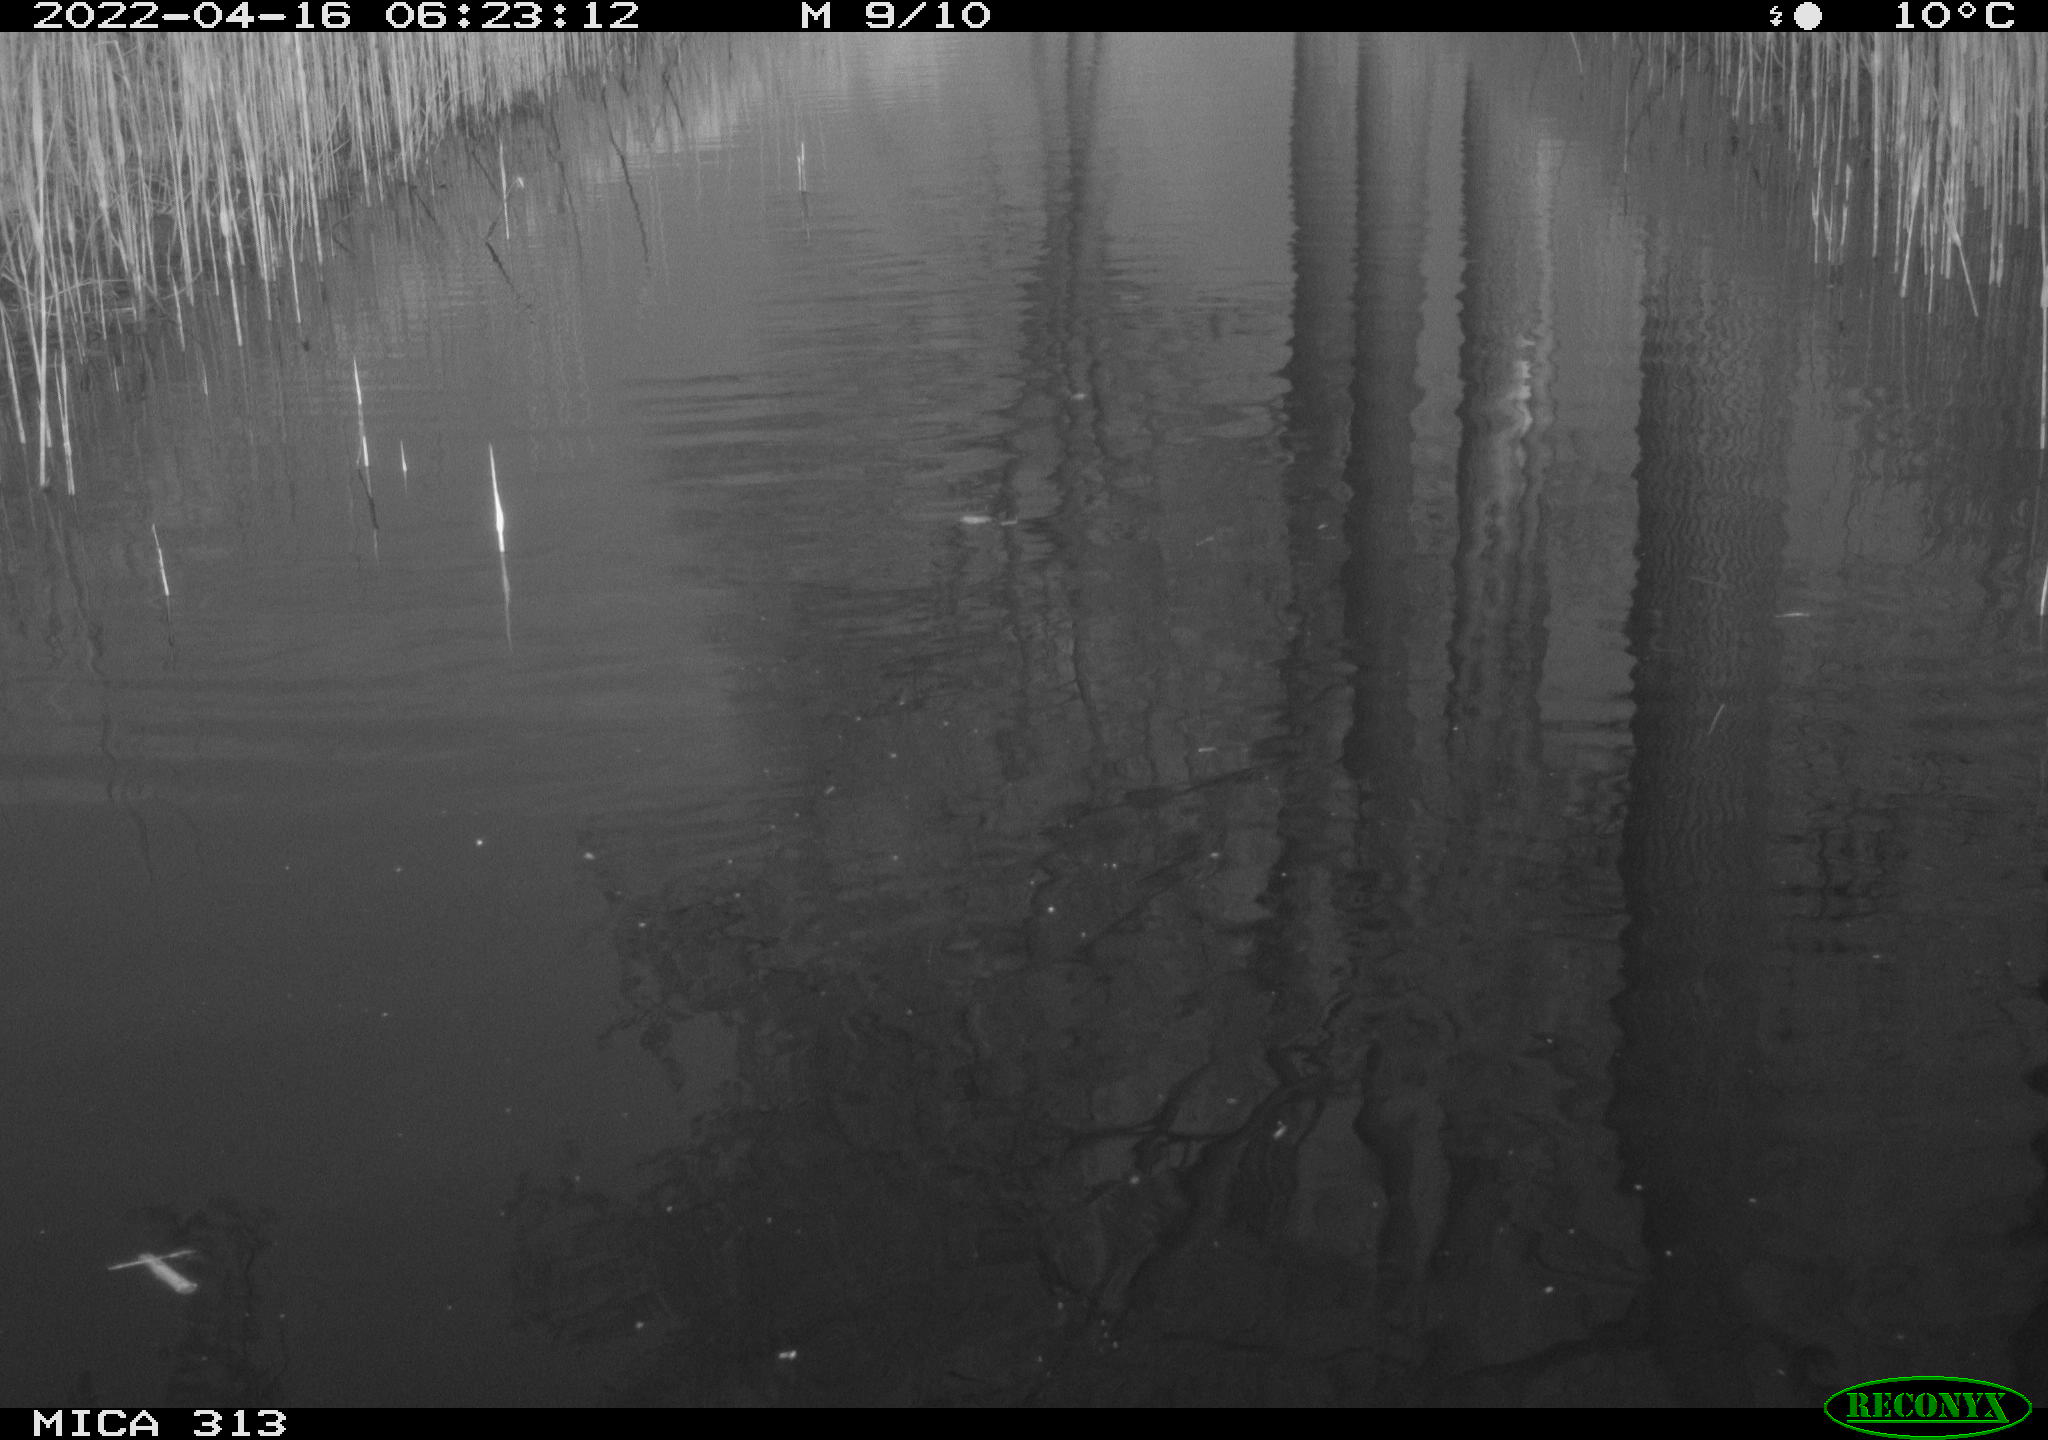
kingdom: Animalia
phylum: Chordata
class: Aves
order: Gruiformes
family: Rallidae
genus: Gallinula
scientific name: Gallinula chloropus
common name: Common moorhen
